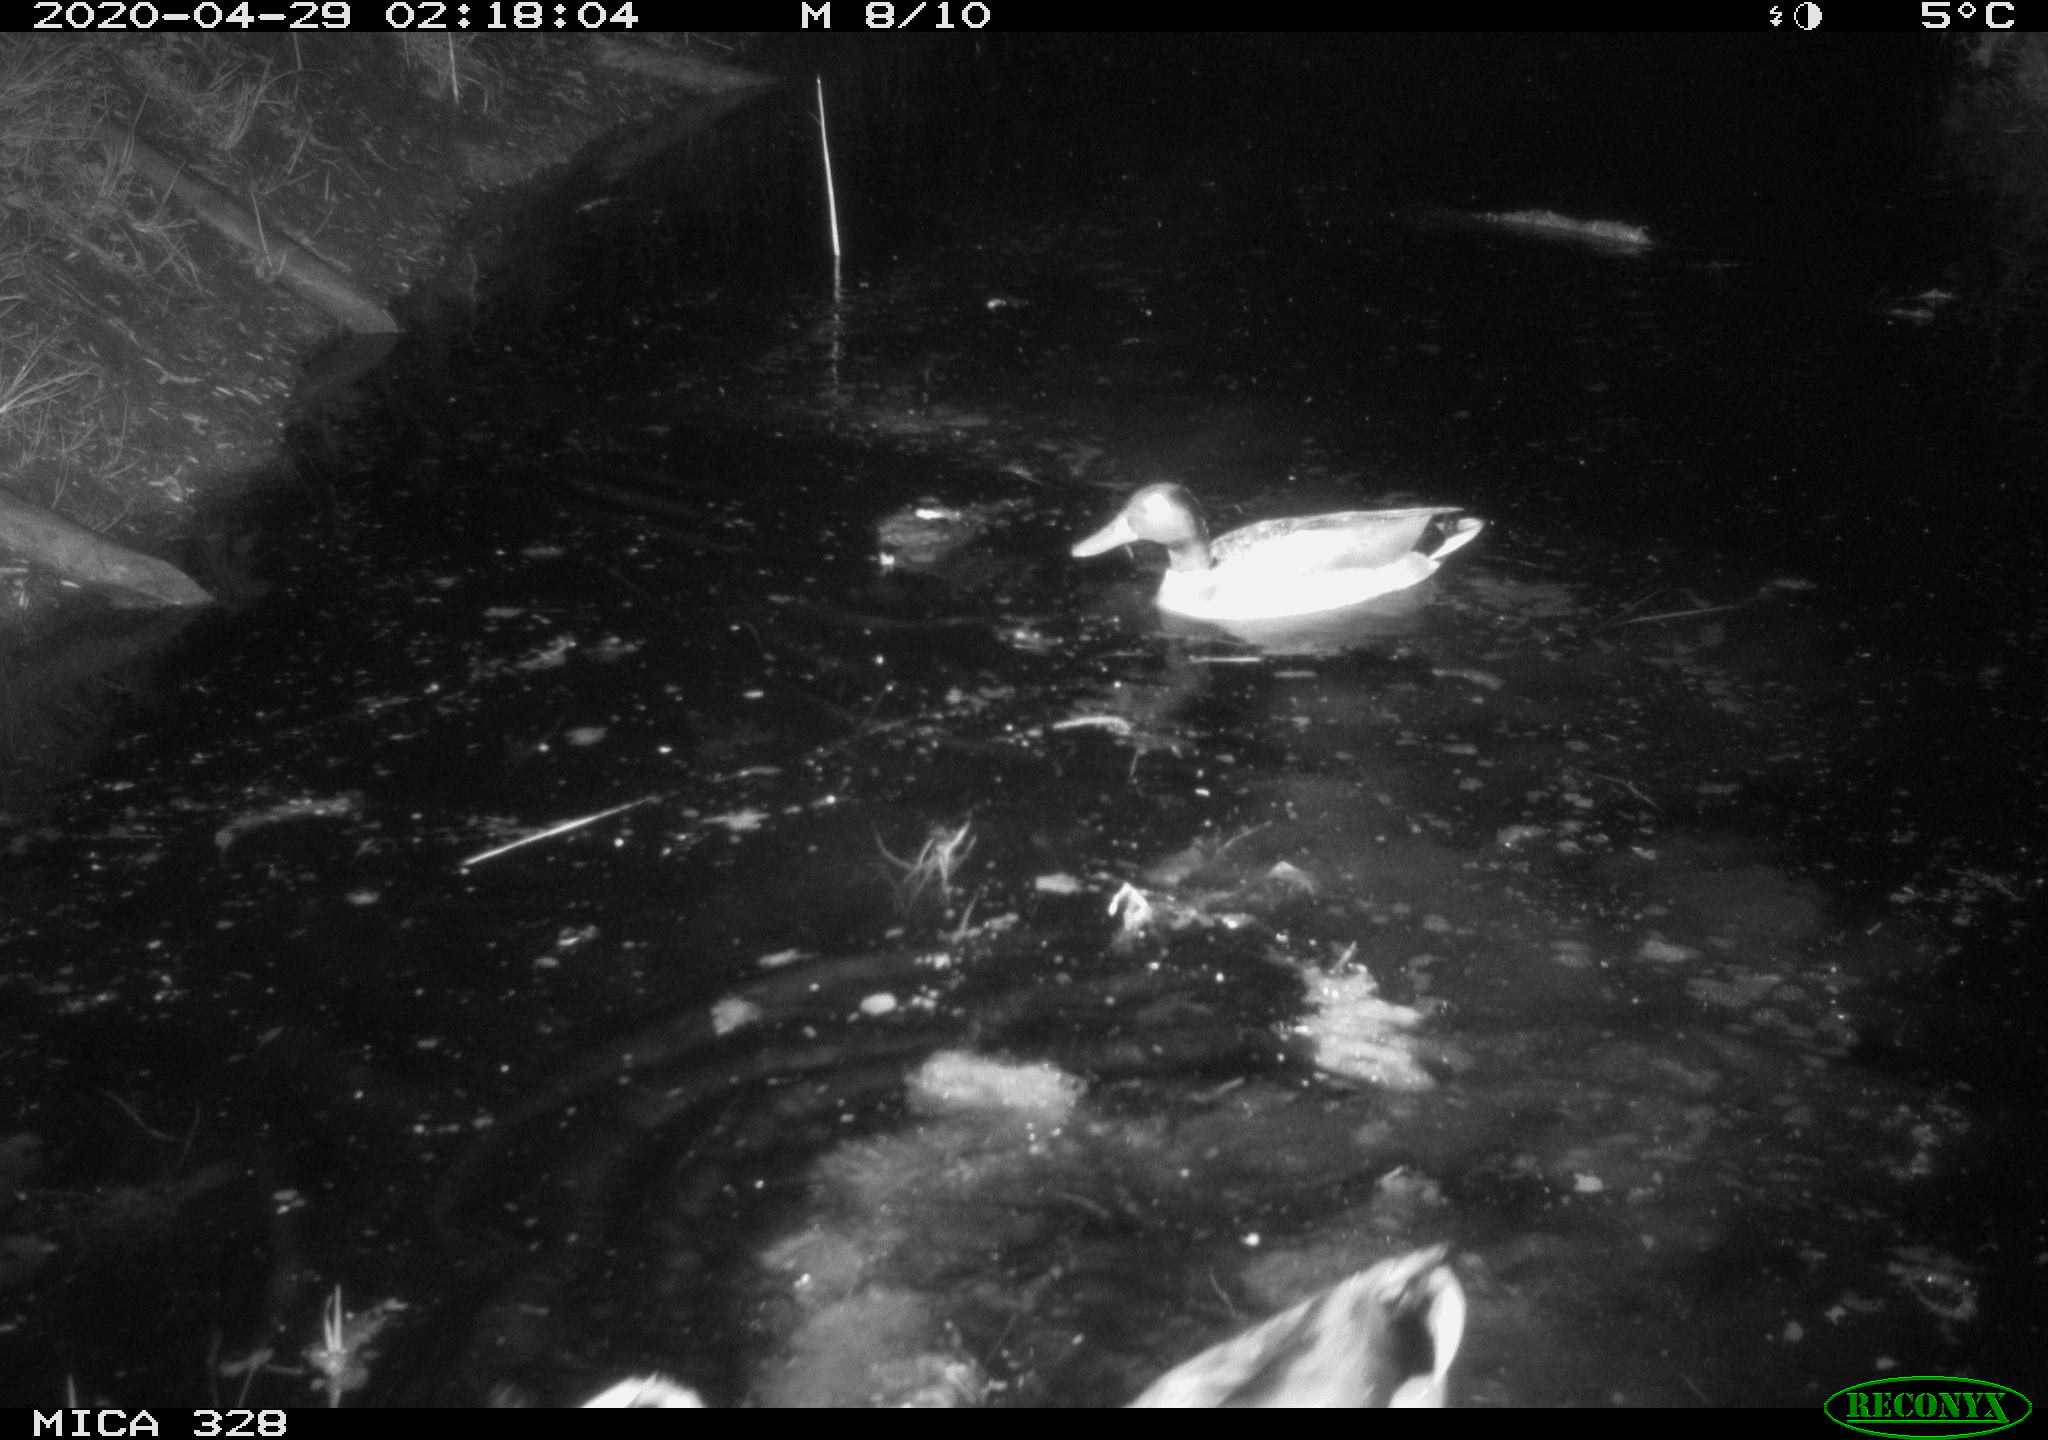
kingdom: Animalia
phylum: Chordata
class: Aves
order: Anseriformes
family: Anatidae
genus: Anas
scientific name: Anas platyrhynchos
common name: Mallard
